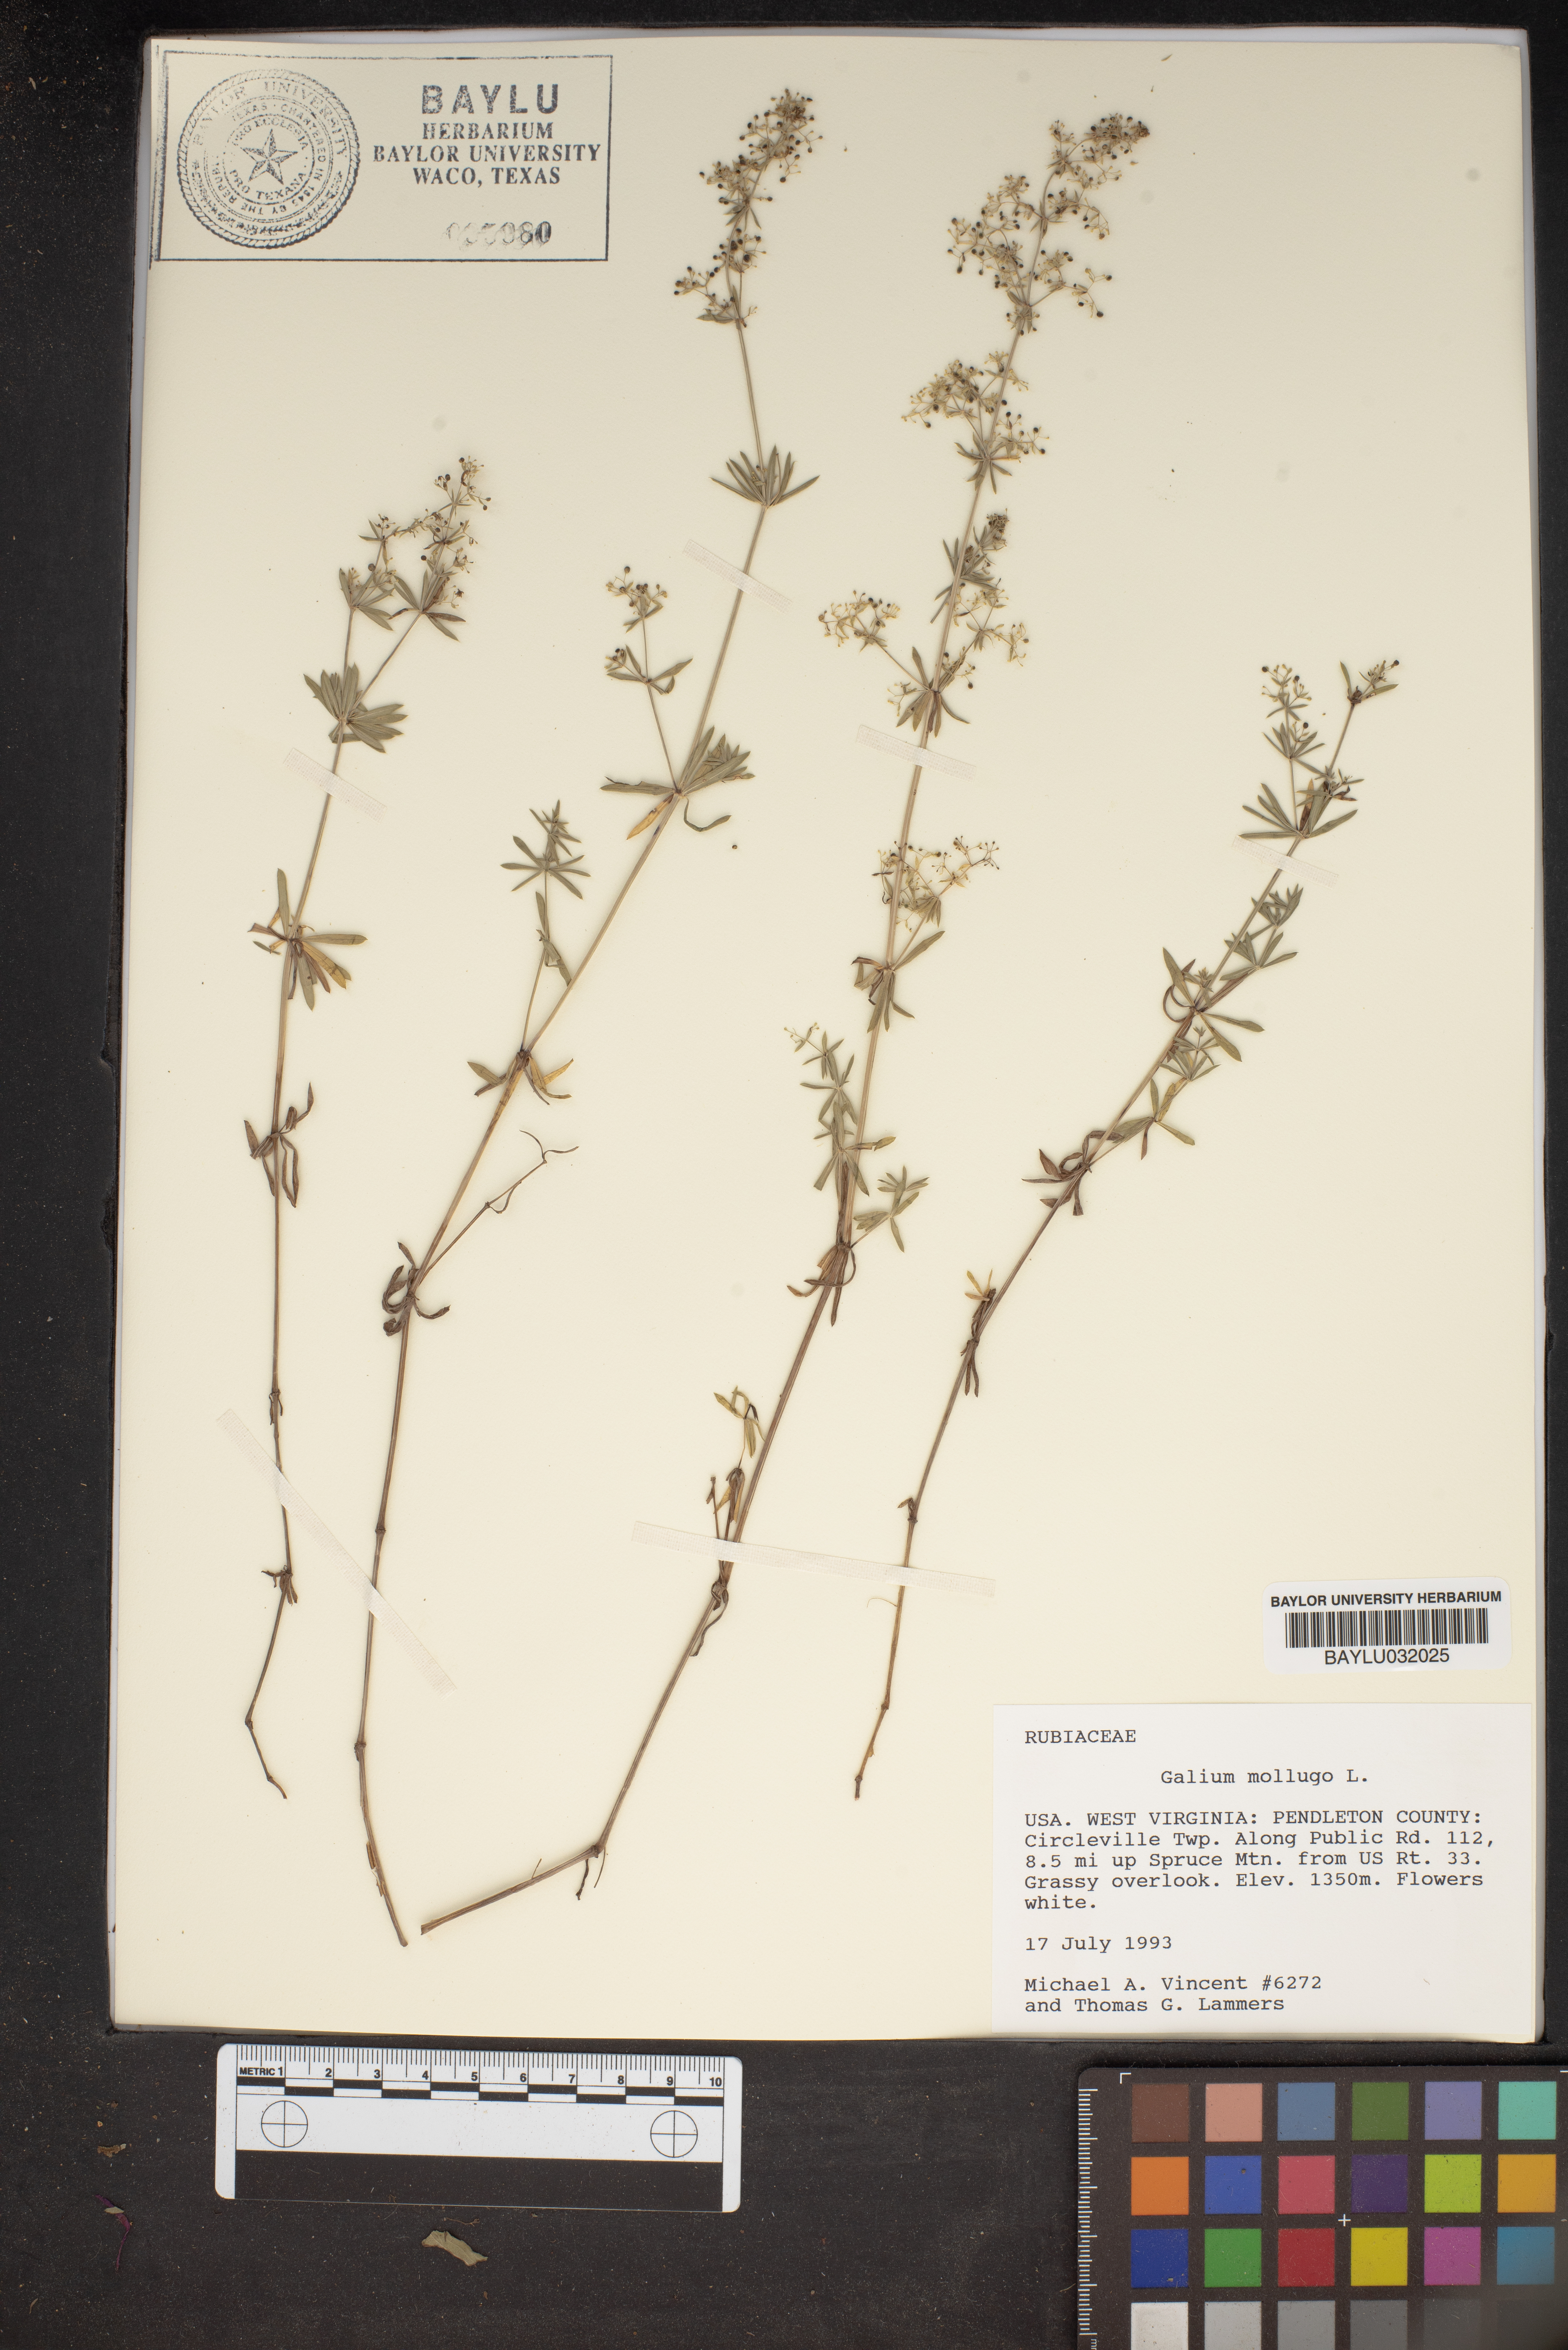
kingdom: Plantae
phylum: Tracheophyta
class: Magnoliopsida
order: Gentianales
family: Rubiaceae
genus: Galium
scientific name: Galium mollugo
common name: Hedge bedstraw
